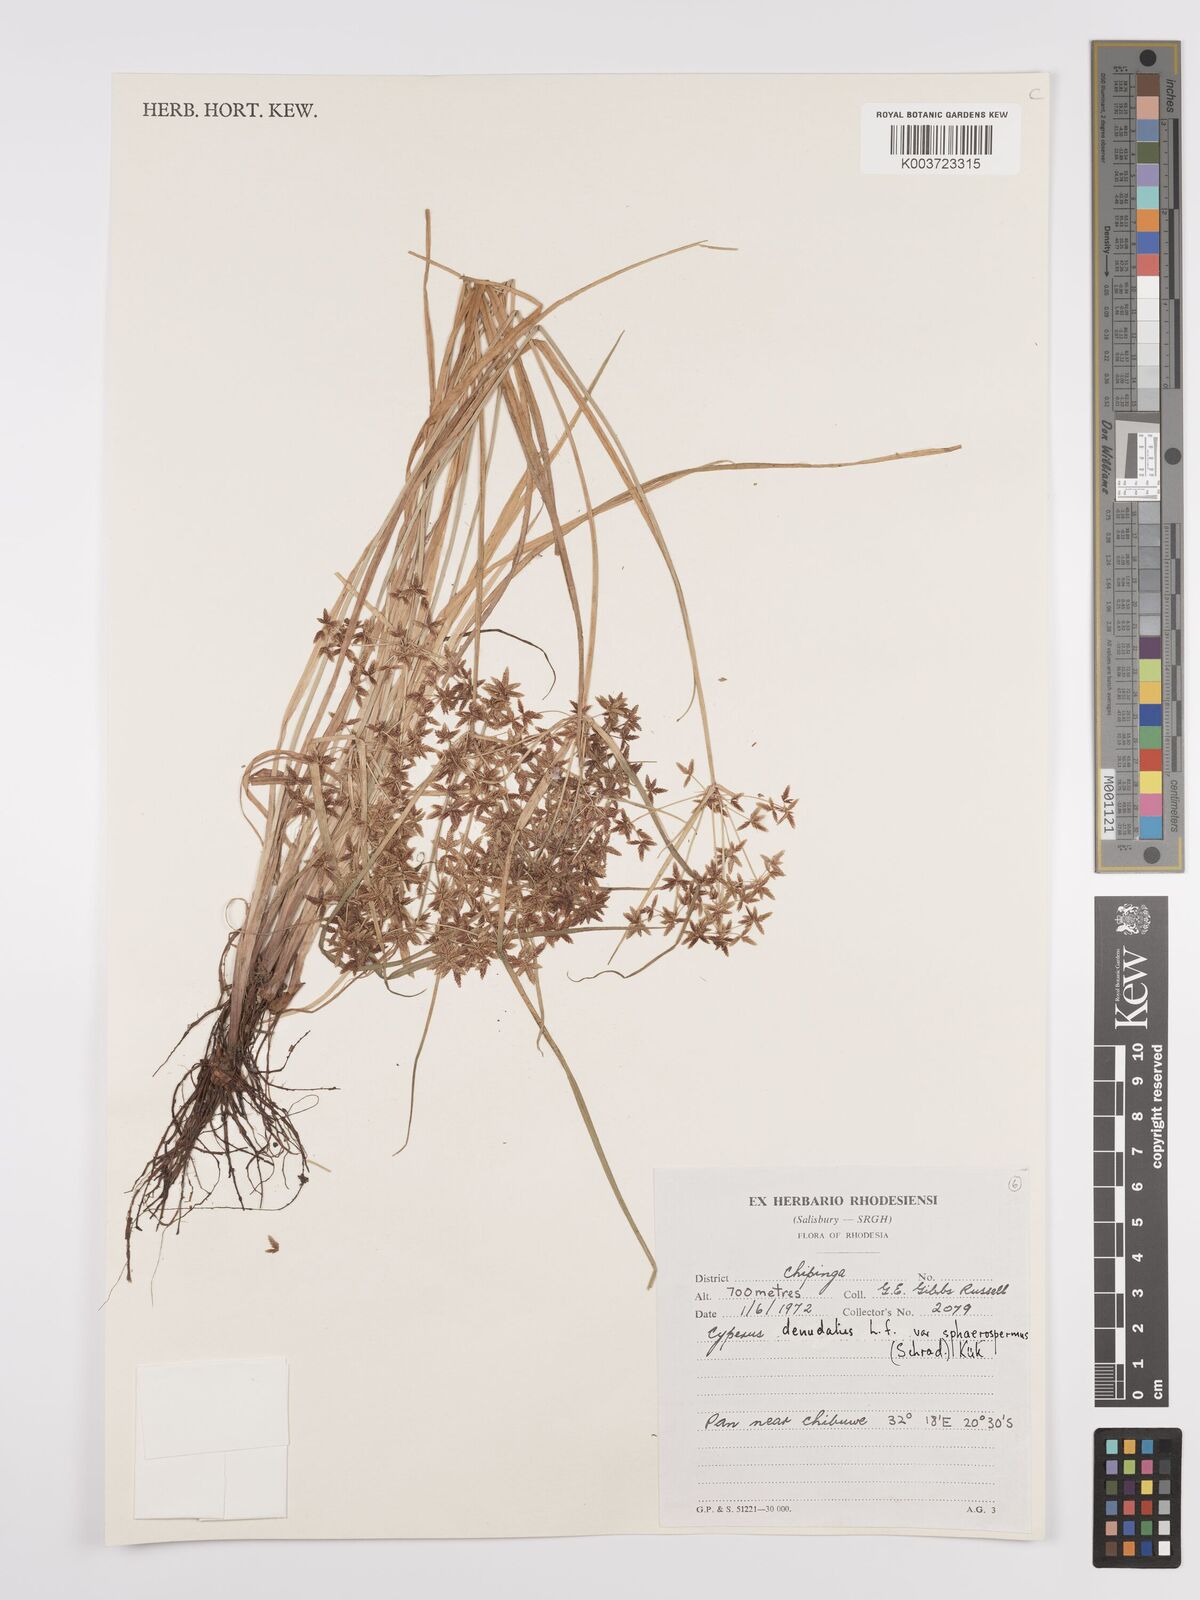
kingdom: Plantae
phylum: Tracheophyta
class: Liliopsida
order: Poales
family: Cyperaceae
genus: Cyperus
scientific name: Cyperus denudatus
